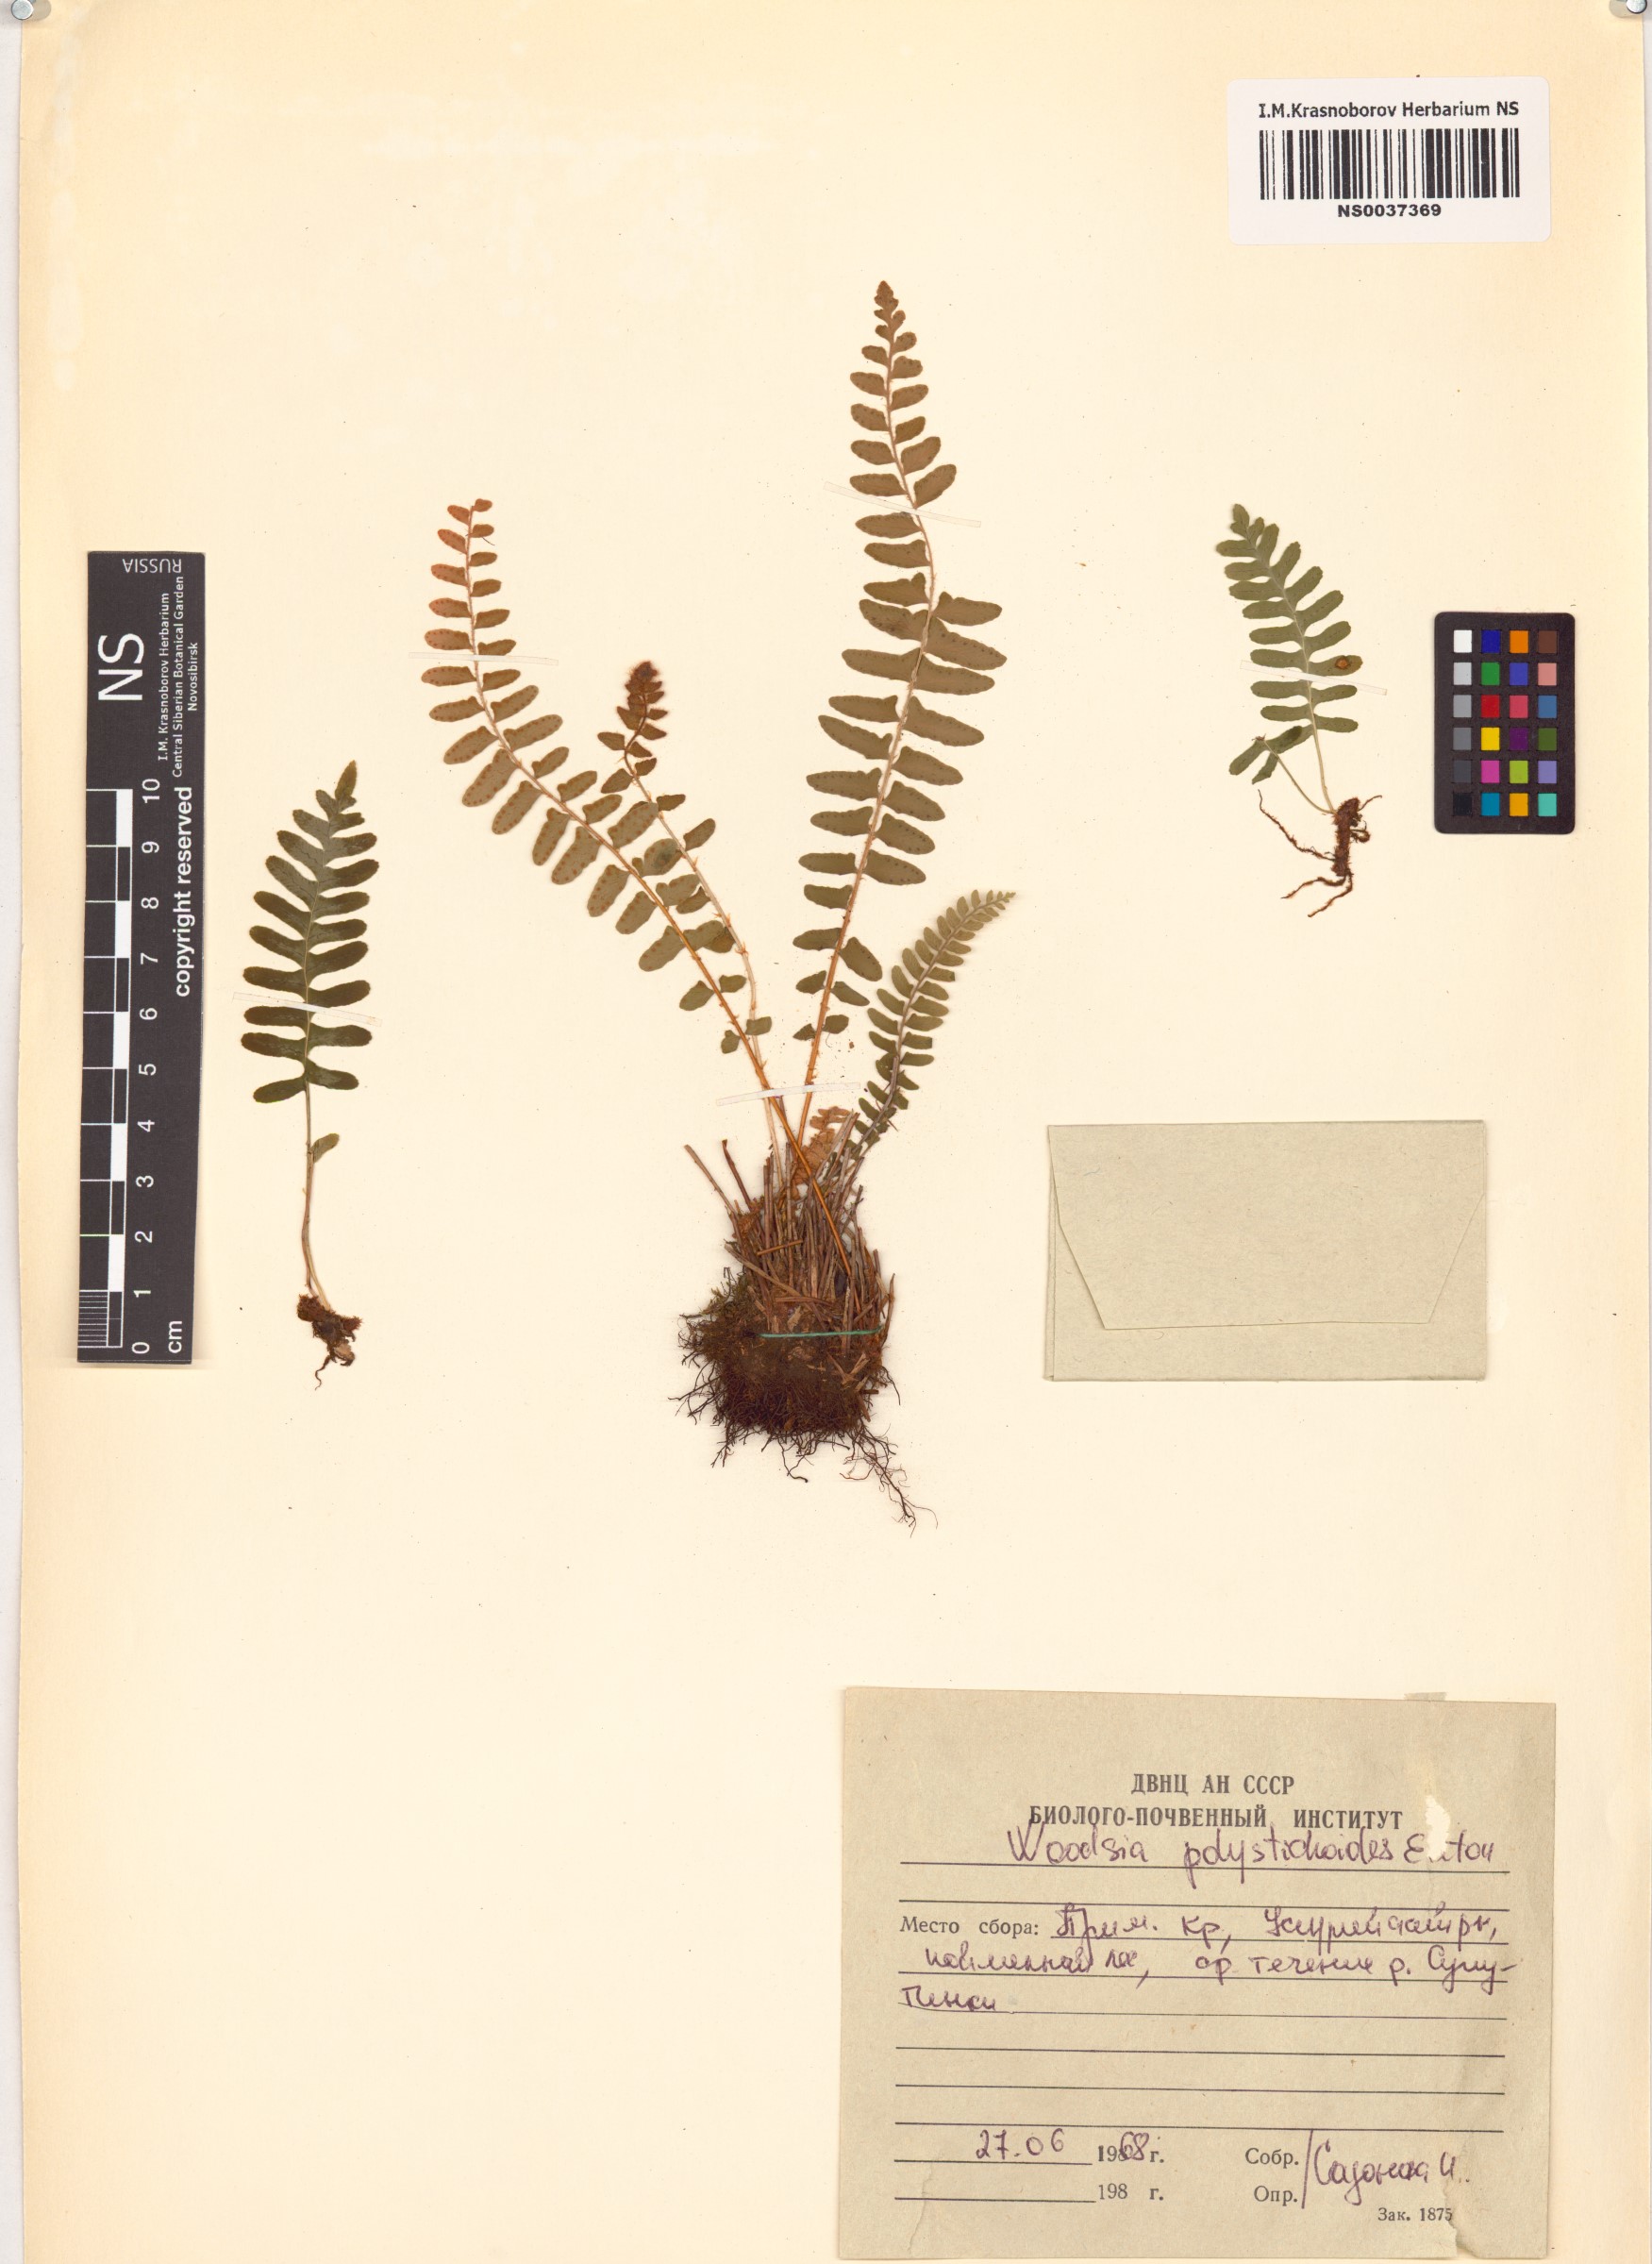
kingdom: Plantae
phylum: Tracheophyta
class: Polypodiopsida
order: Polypodiales
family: Woodsiaceae
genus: Woodsia
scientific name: Woodsia polystichoides
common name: Holly fern woodsia
